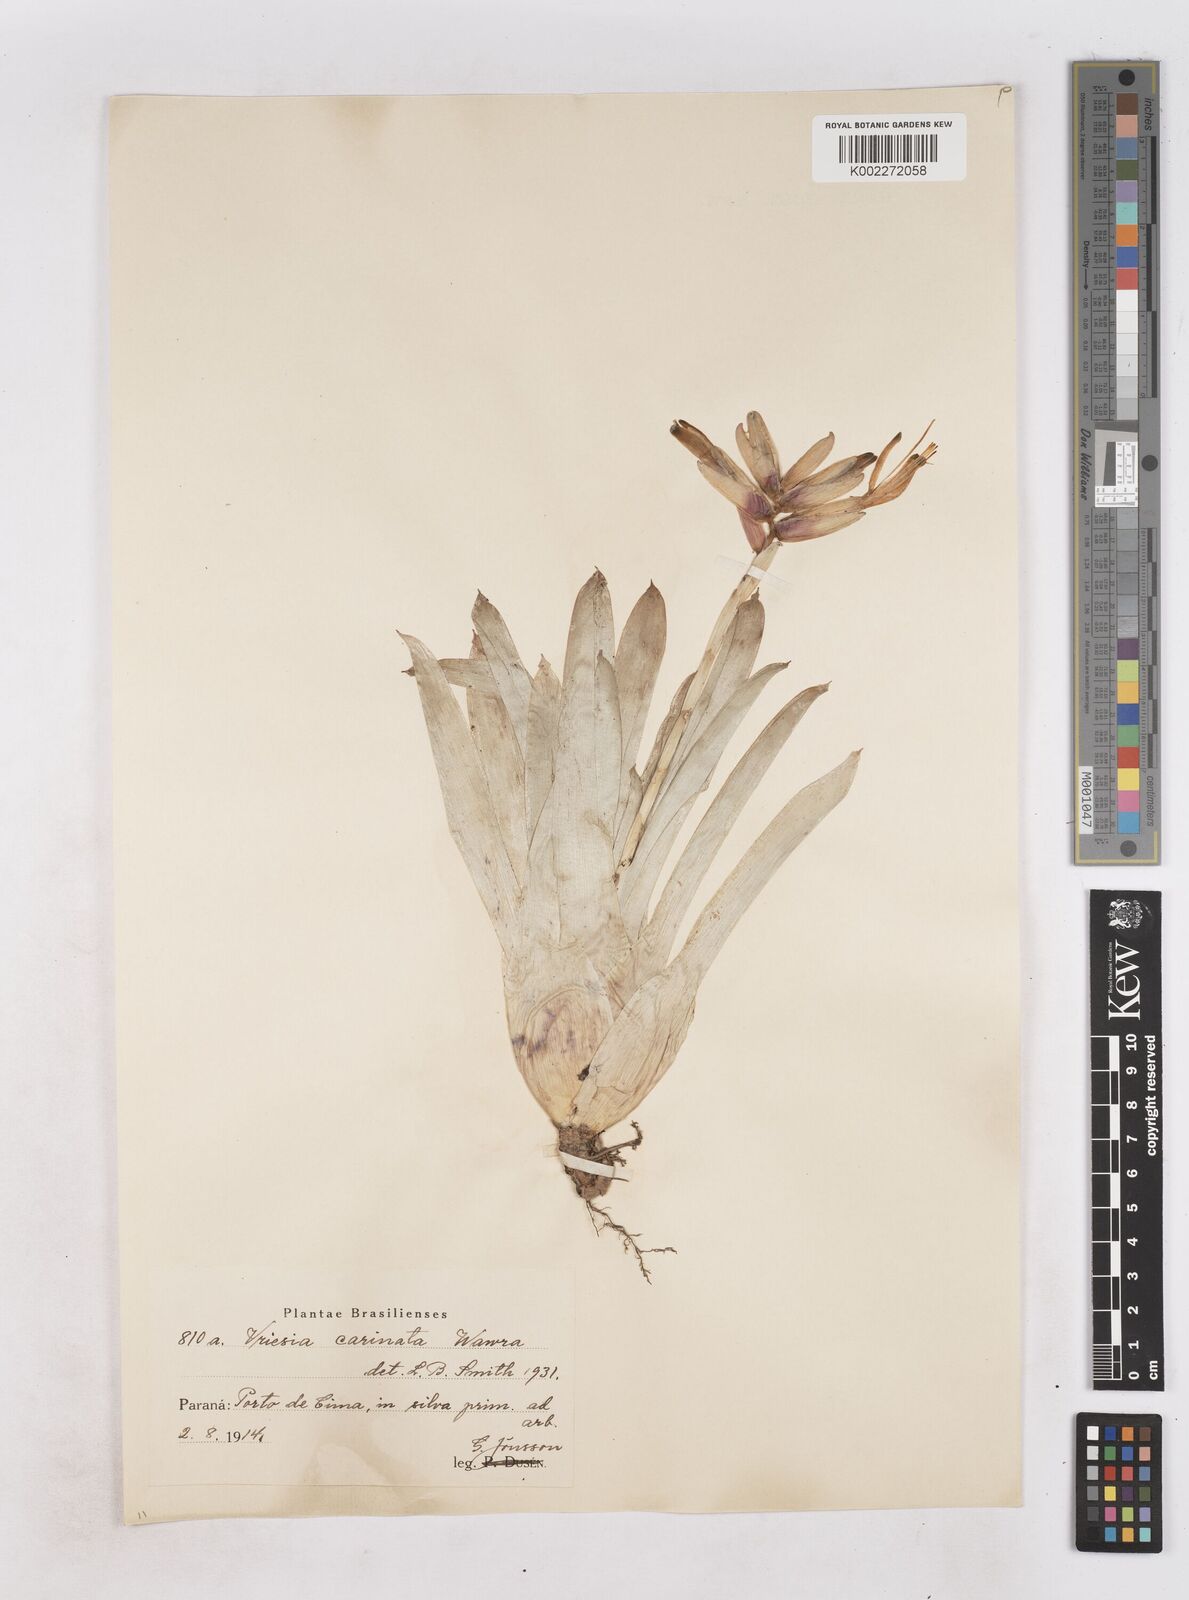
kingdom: Plantae
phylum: Tracheophyta
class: Liliopsida
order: Poales
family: Bromeliaceae
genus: Vriesea
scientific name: Vriesea carinata
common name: Lobster-claws
